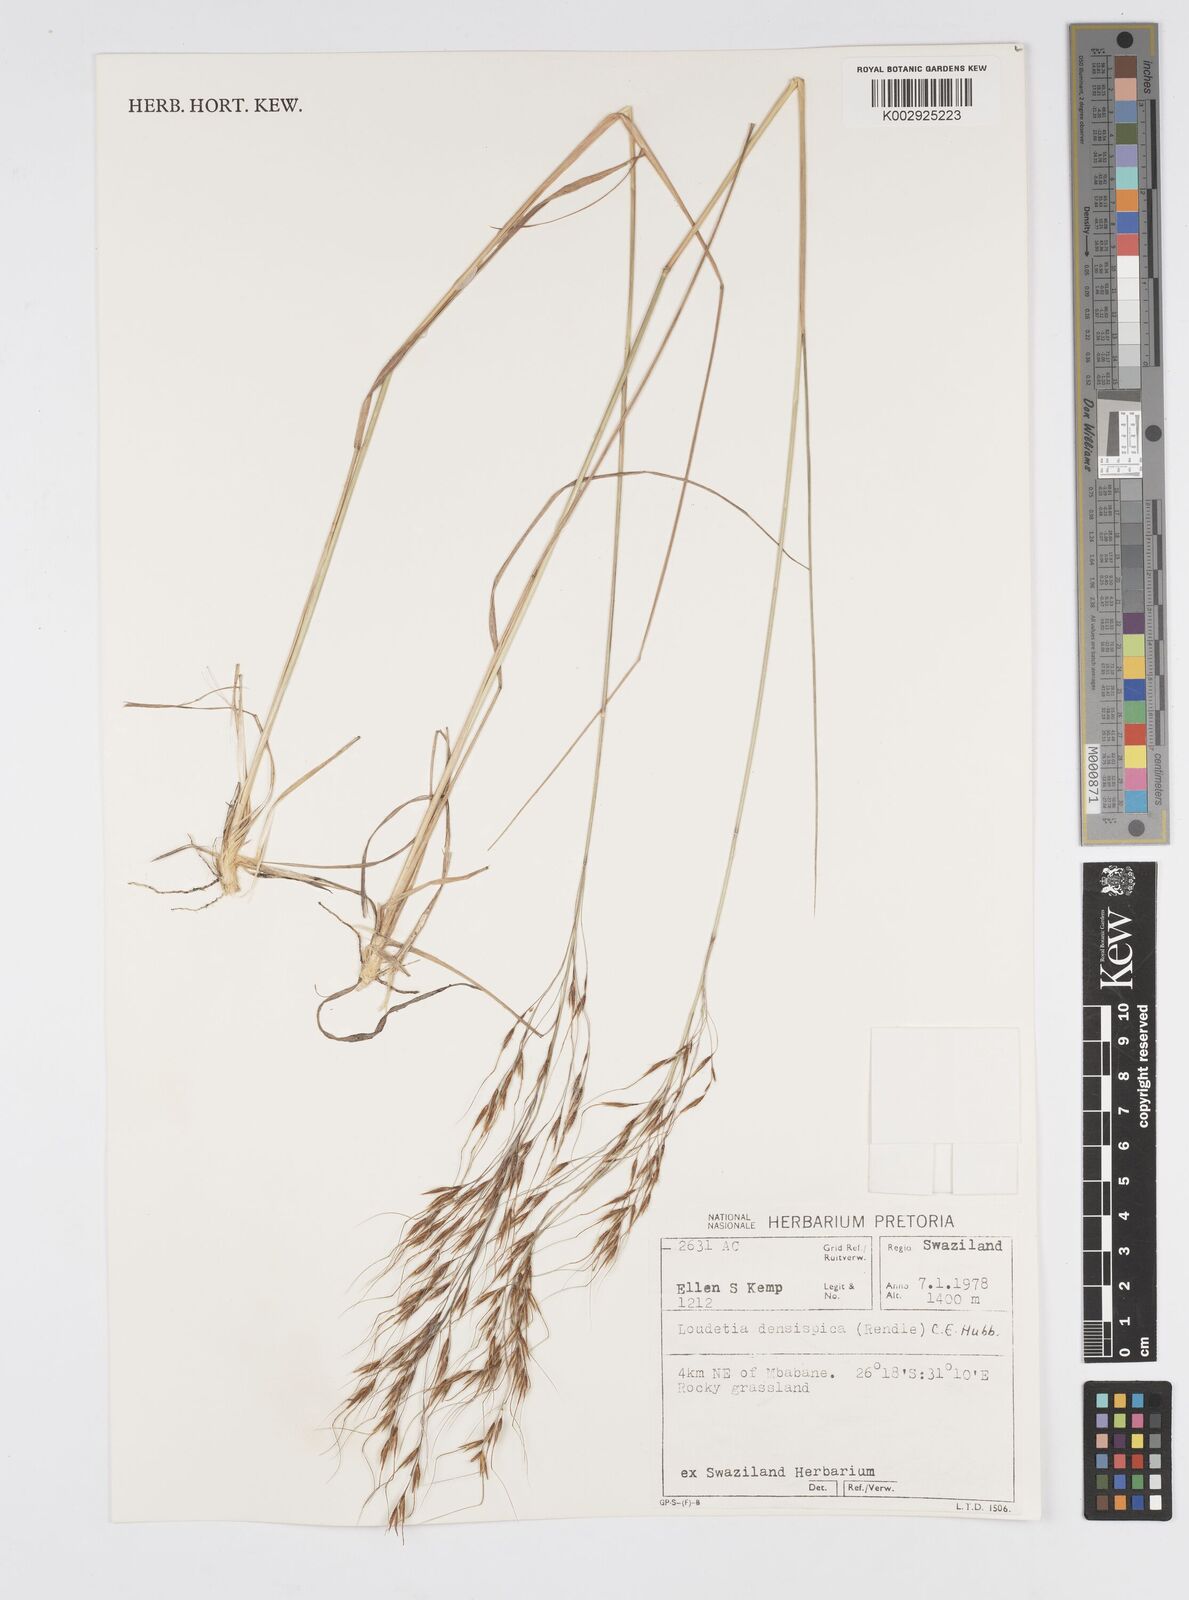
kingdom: Plantae
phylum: Tracheophyta
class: Liliopsida
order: Poales
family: Poaceae
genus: Loudetia
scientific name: Loudetia simplex
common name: Common russet grass
